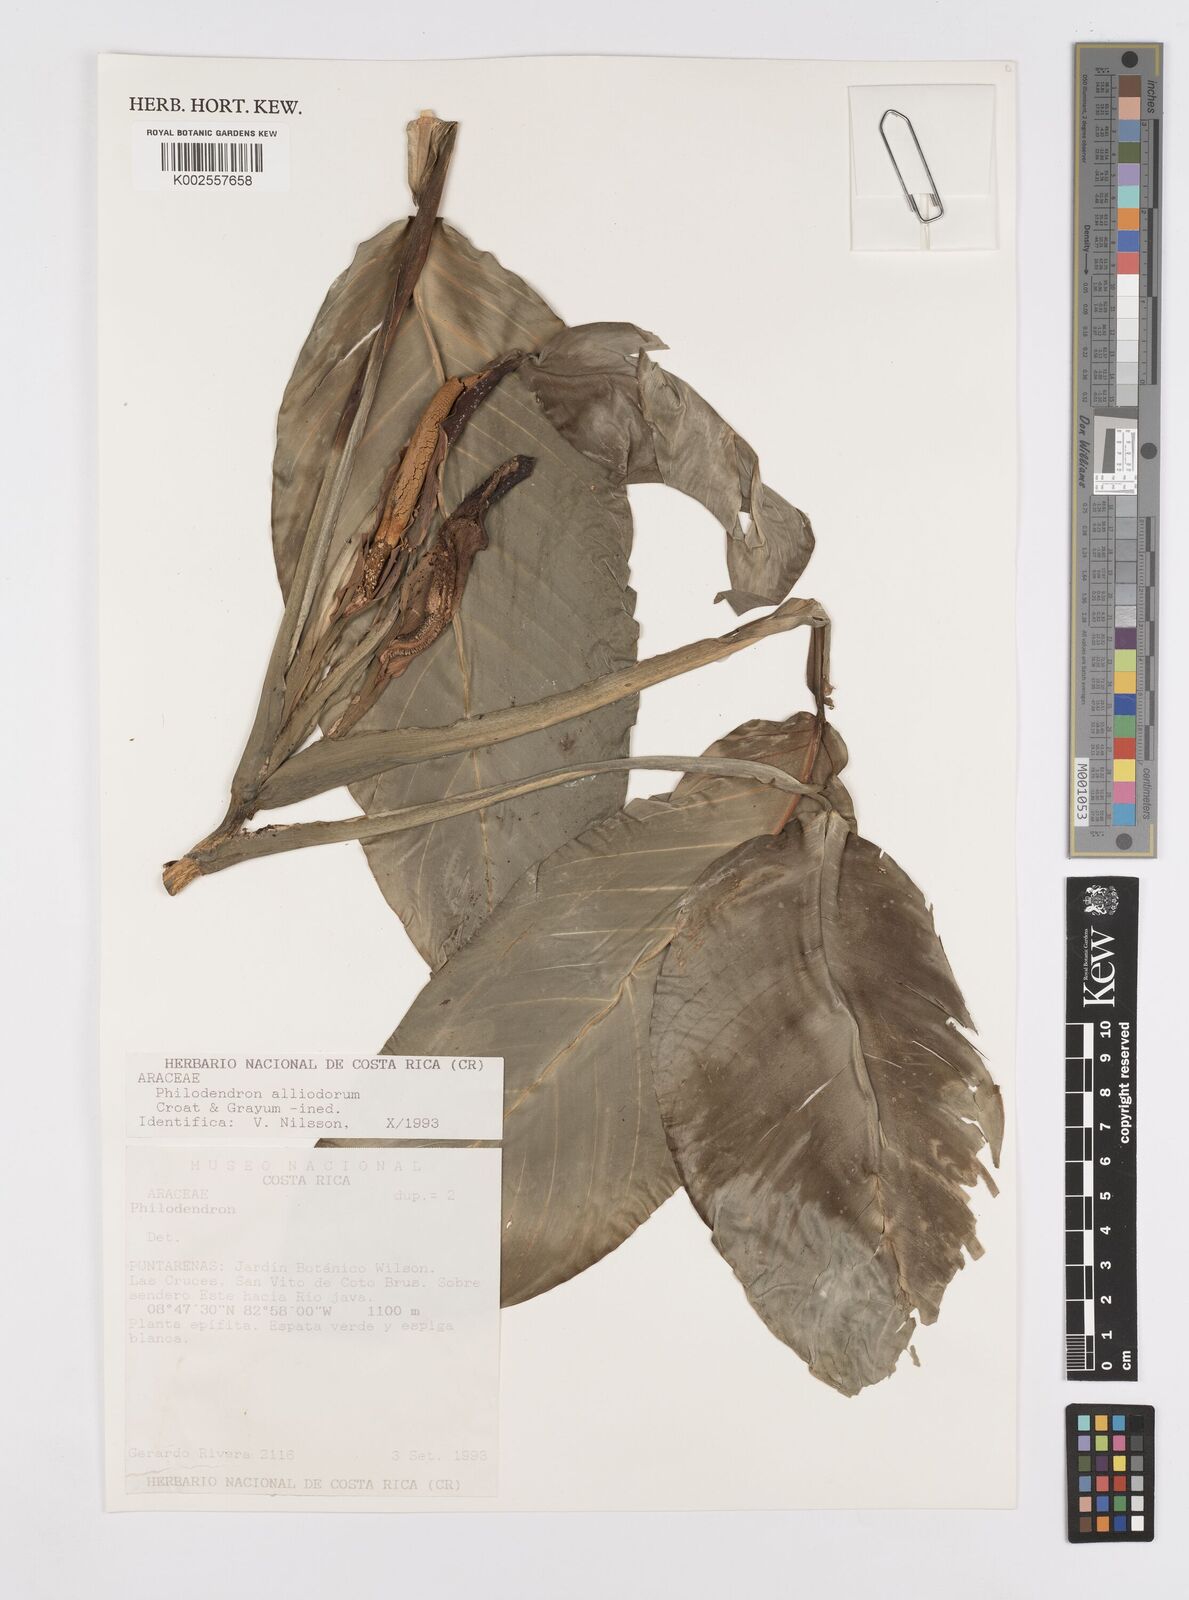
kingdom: Plantae
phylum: Tracheophyta
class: Liliopsida
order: Alismatales
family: Araceae
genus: Philodendron
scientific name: Philodendron alliodorum
